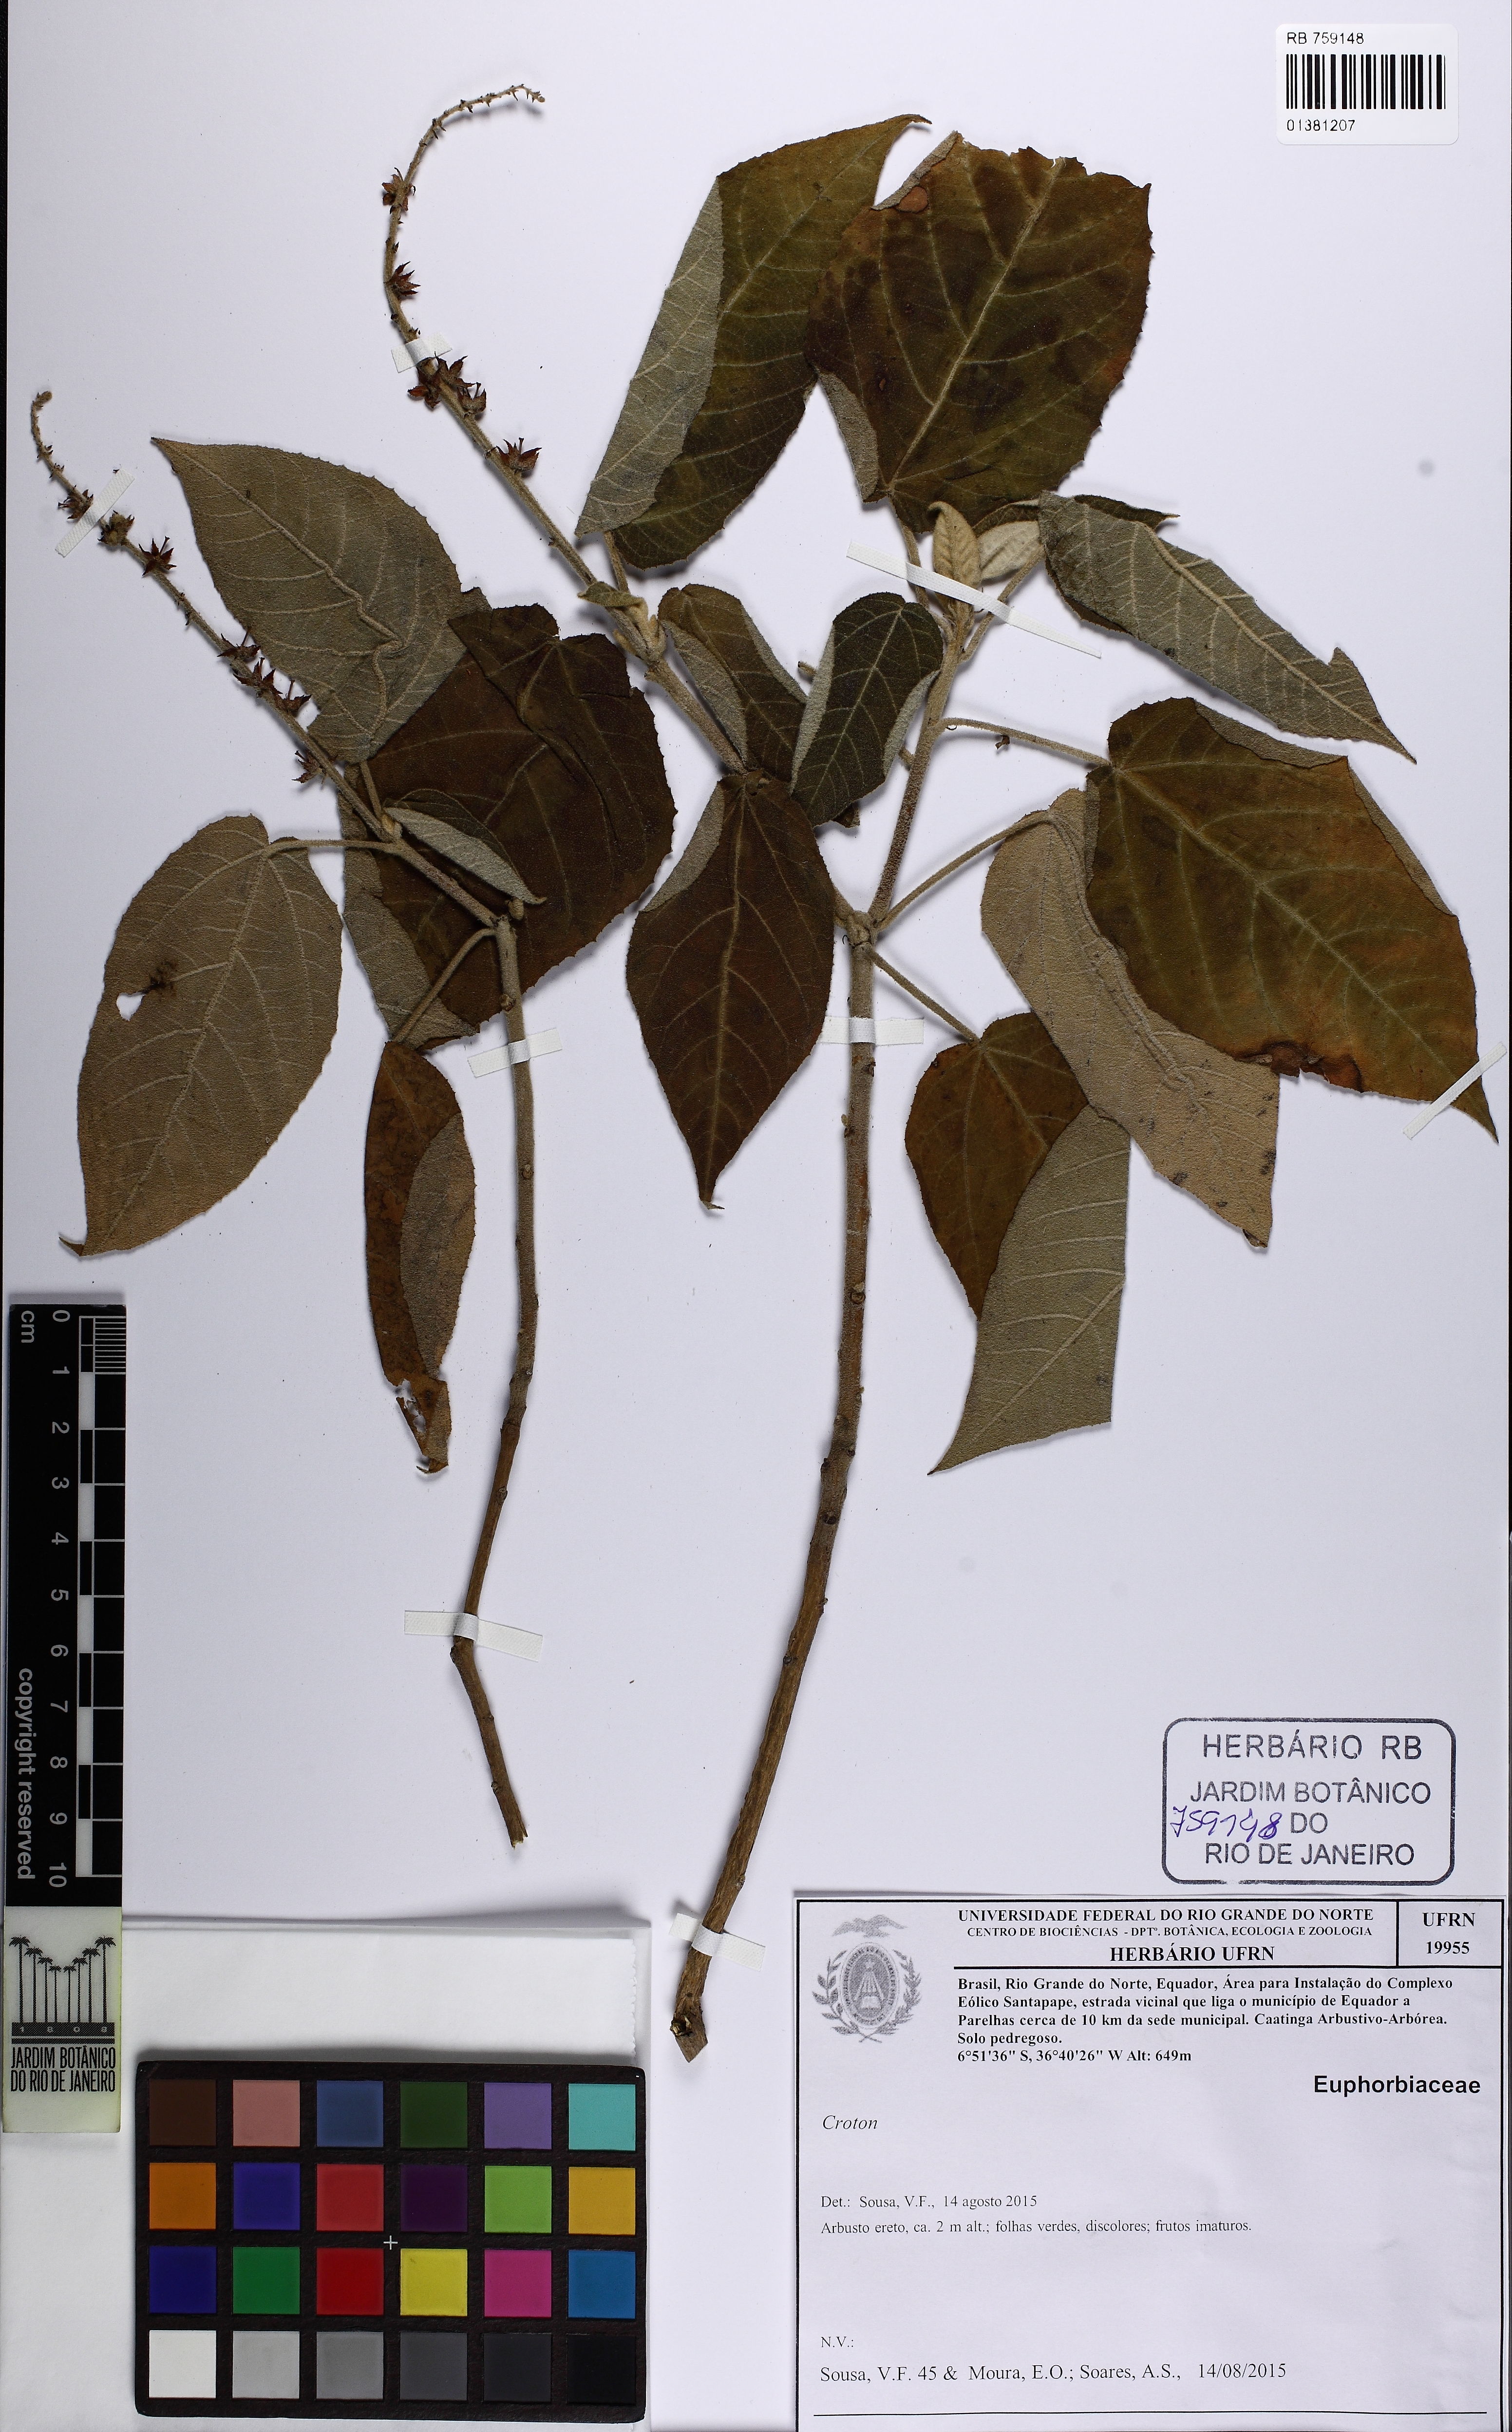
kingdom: Plantae
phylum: Tracheophyta
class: Magnoliopsida
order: Malpighiales
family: Euphorbiaceae
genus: Croton
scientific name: Croton
